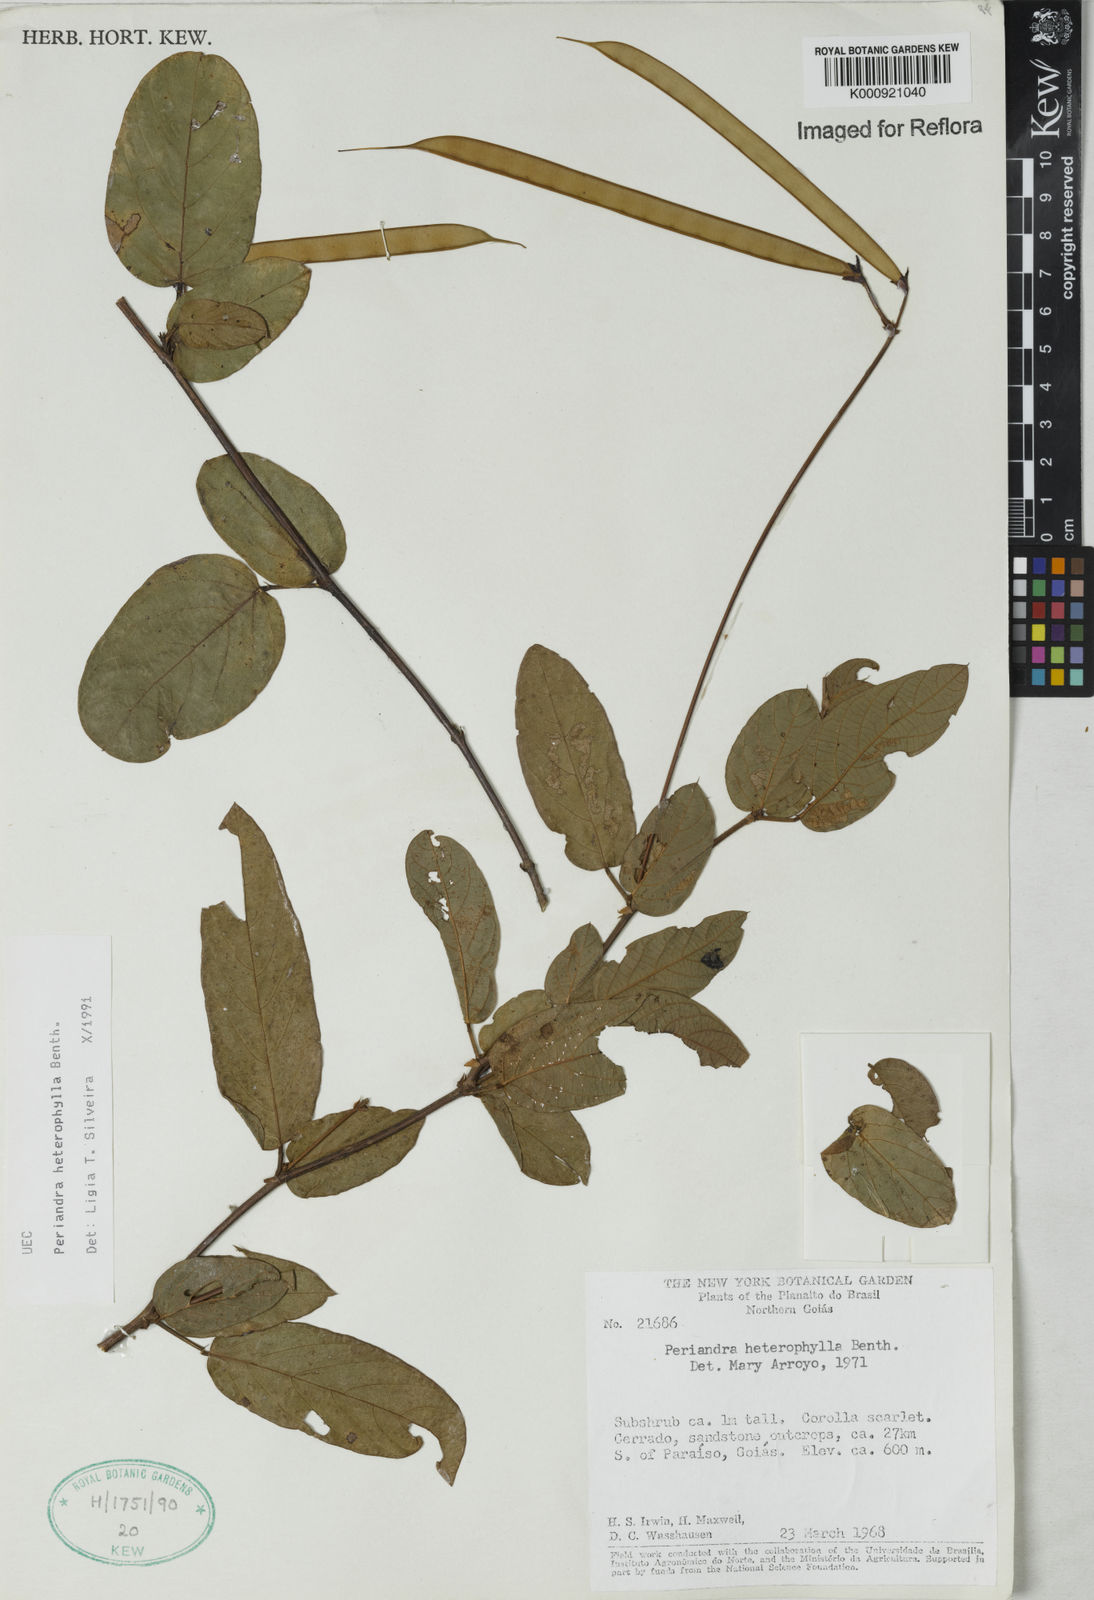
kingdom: Plantae
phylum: Tracheophyta
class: Magnoliopsida
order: Fabales
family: Fabaceae
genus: Periandra
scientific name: Periandra heterophylla
